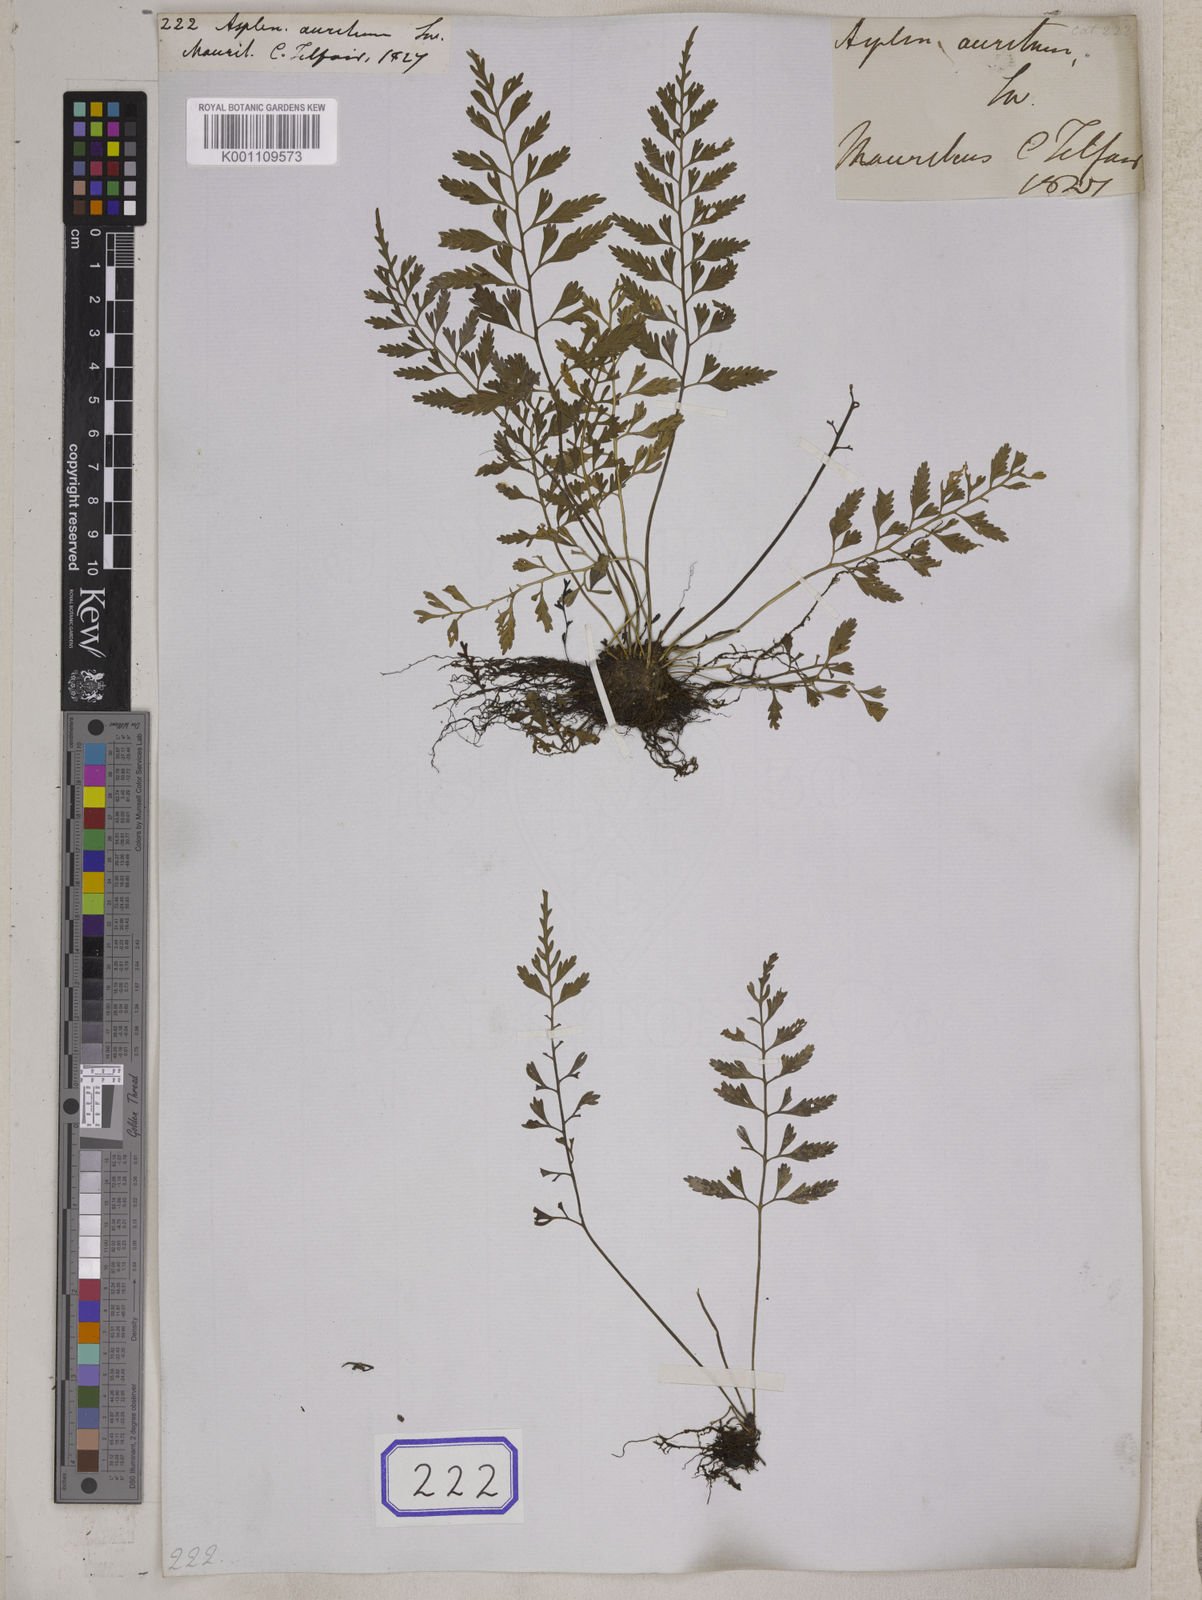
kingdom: Plantae
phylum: Tracheophyta
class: Polypodiopsida
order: Polypodiales
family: Aspleniaceae
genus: Asplenium
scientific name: Asplenium auritum
